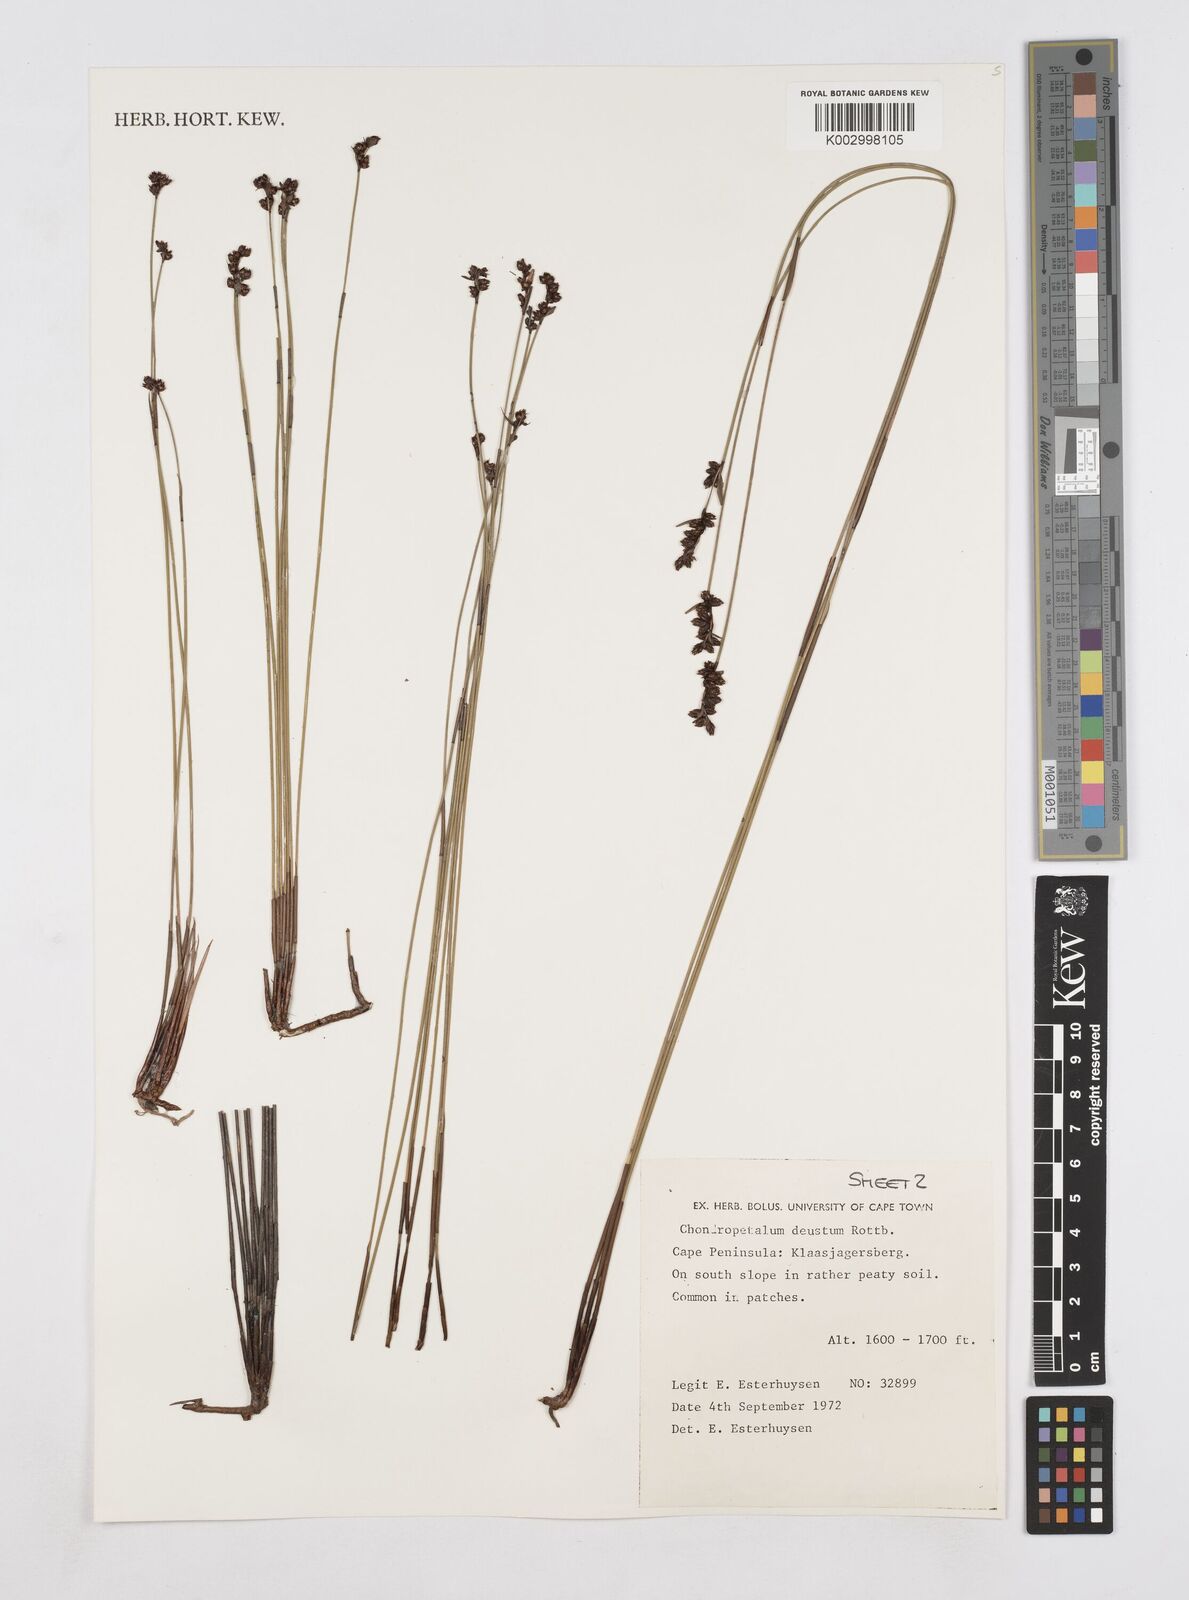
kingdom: Plantae
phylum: Tracheophyta
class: Liliopsida
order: Poales
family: Restionaceae
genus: Elegia
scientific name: Elegia deusta
